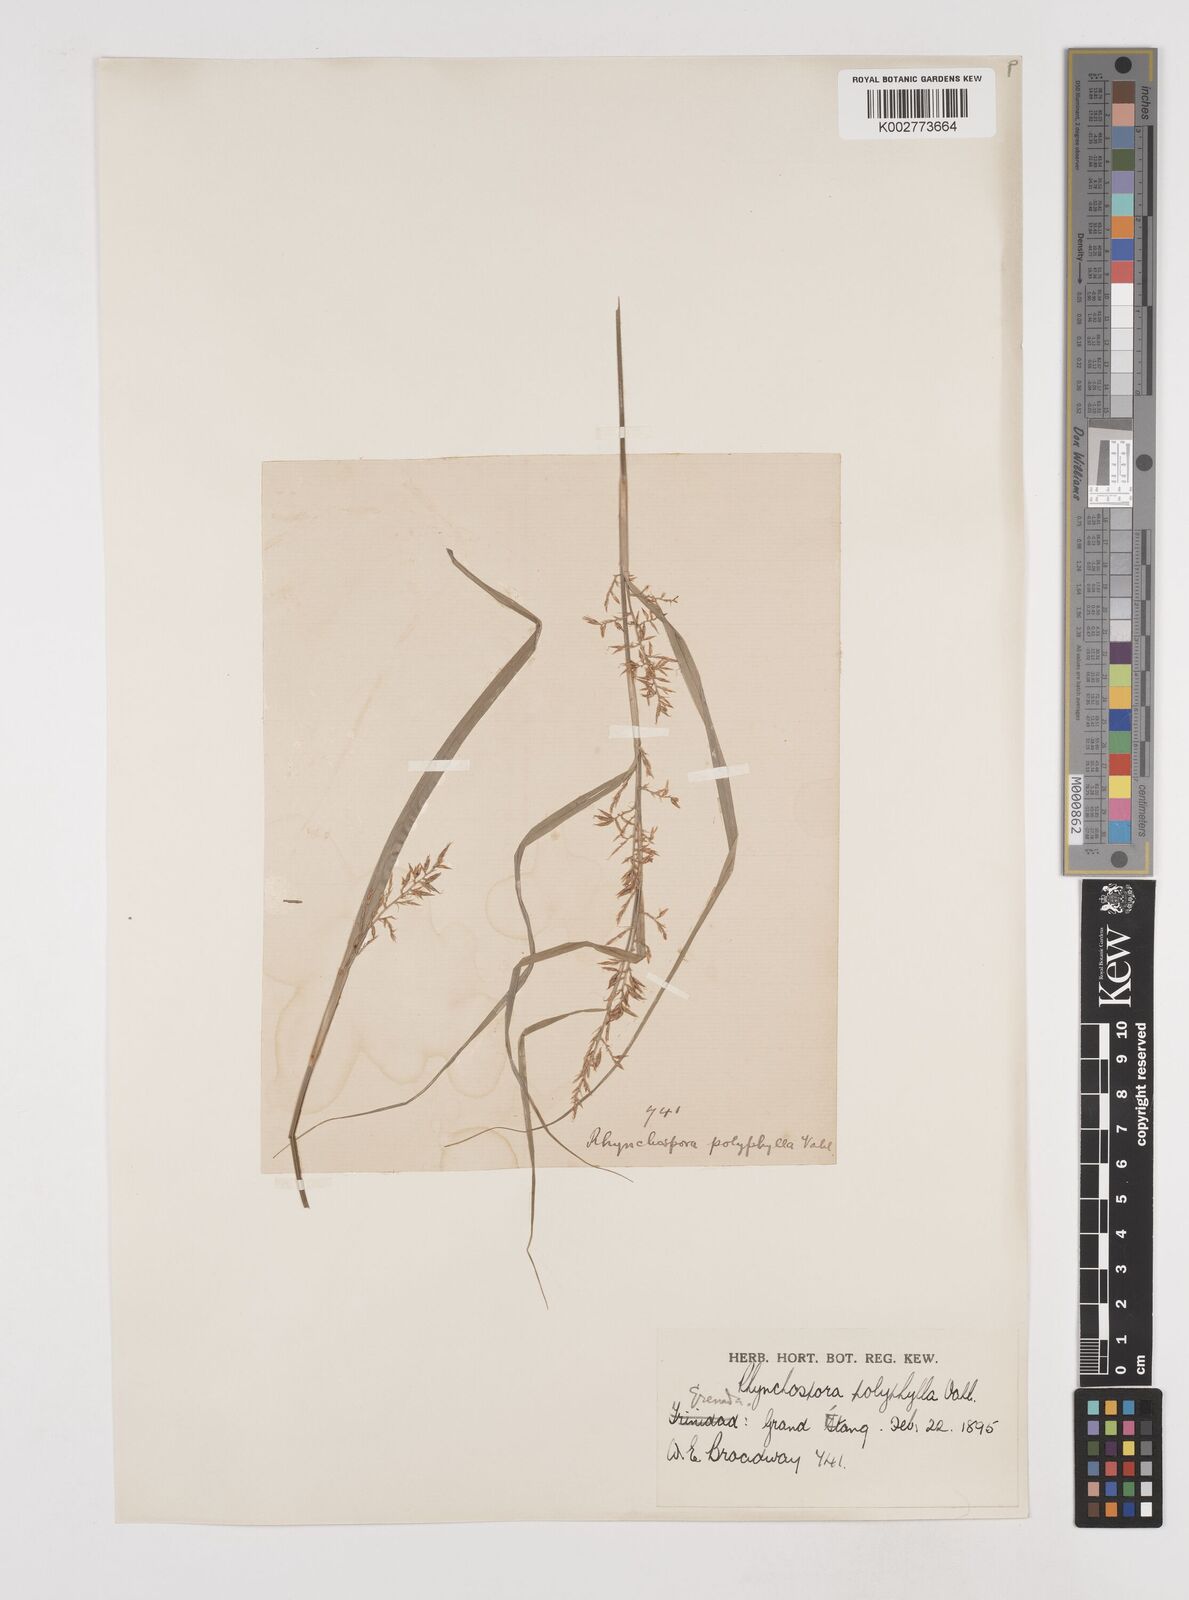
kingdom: Plantae
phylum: Tracheophyta
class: Liliopsida
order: Poales
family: Cyperaceae
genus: Rhynchospora
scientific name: Rhynchospora polyphylla
